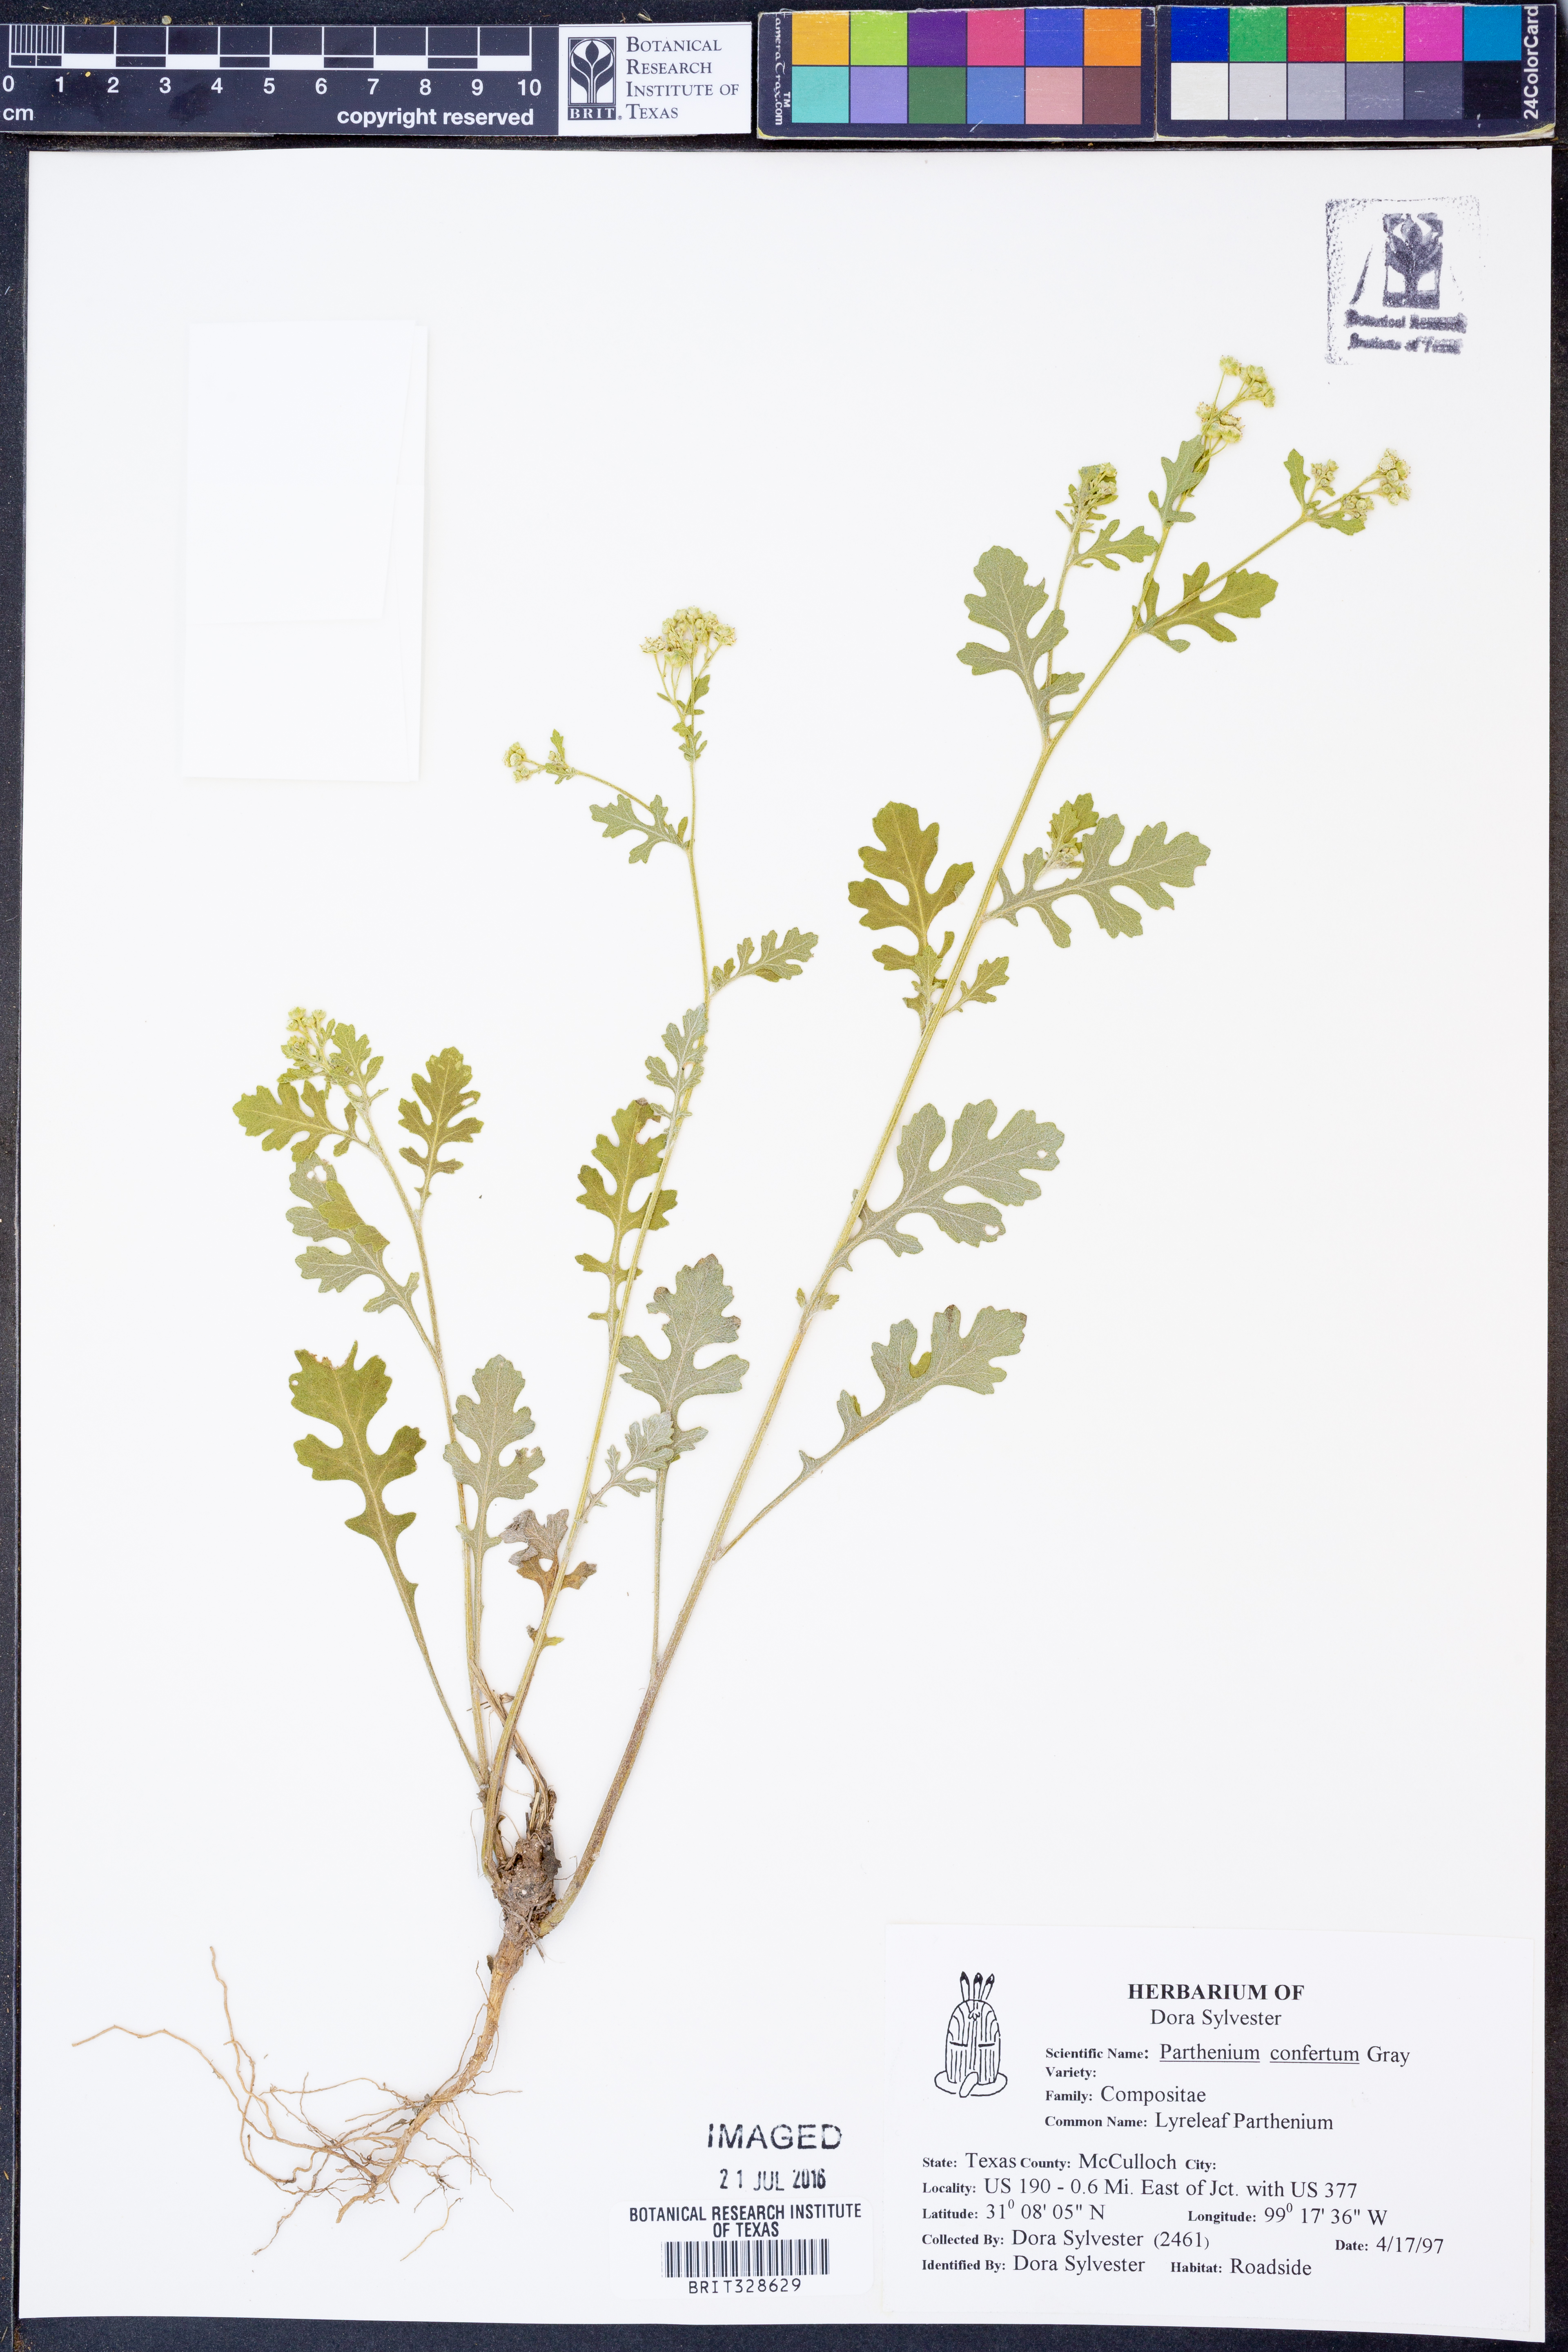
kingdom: Plantae
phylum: Tracheophyta
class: Magnoliopsida
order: Asterales
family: Asteraceae
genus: Parthenium
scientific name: Parthenium confertum
